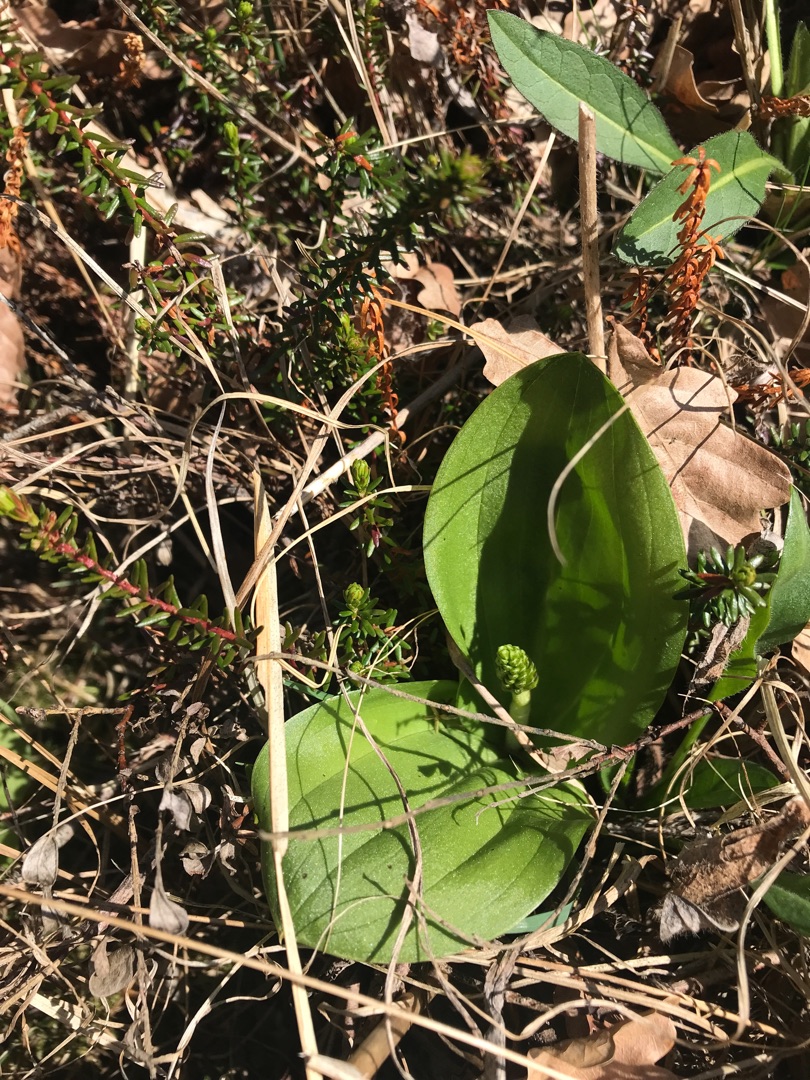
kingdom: Plantae
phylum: Tracheophyta
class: Liliopsida
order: Asparagales
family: Orchidaceae
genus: Neottia
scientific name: Neottia ovata
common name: Ægbladet fliglæbe
